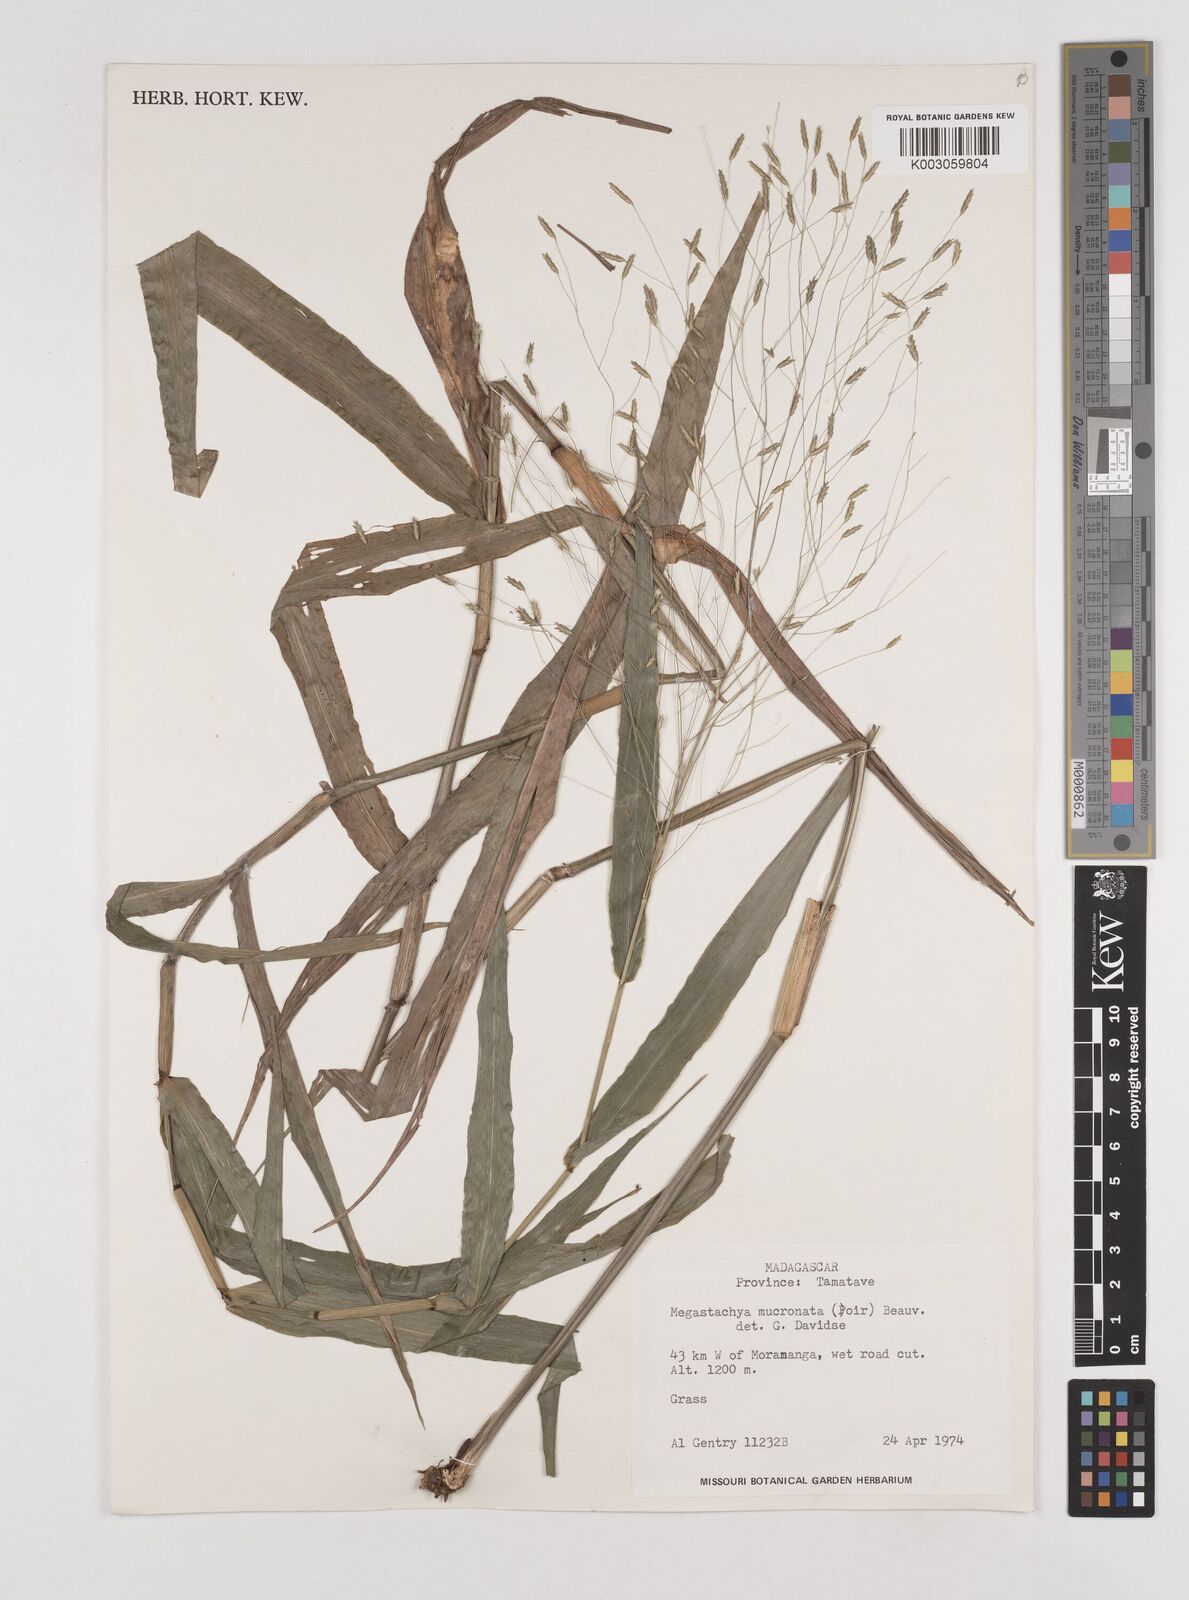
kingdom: Plantae
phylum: Tracheophyta
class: Liliopsida
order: Poales
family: Poaceae
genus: Megastachya
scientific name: Megastachya mucronata
